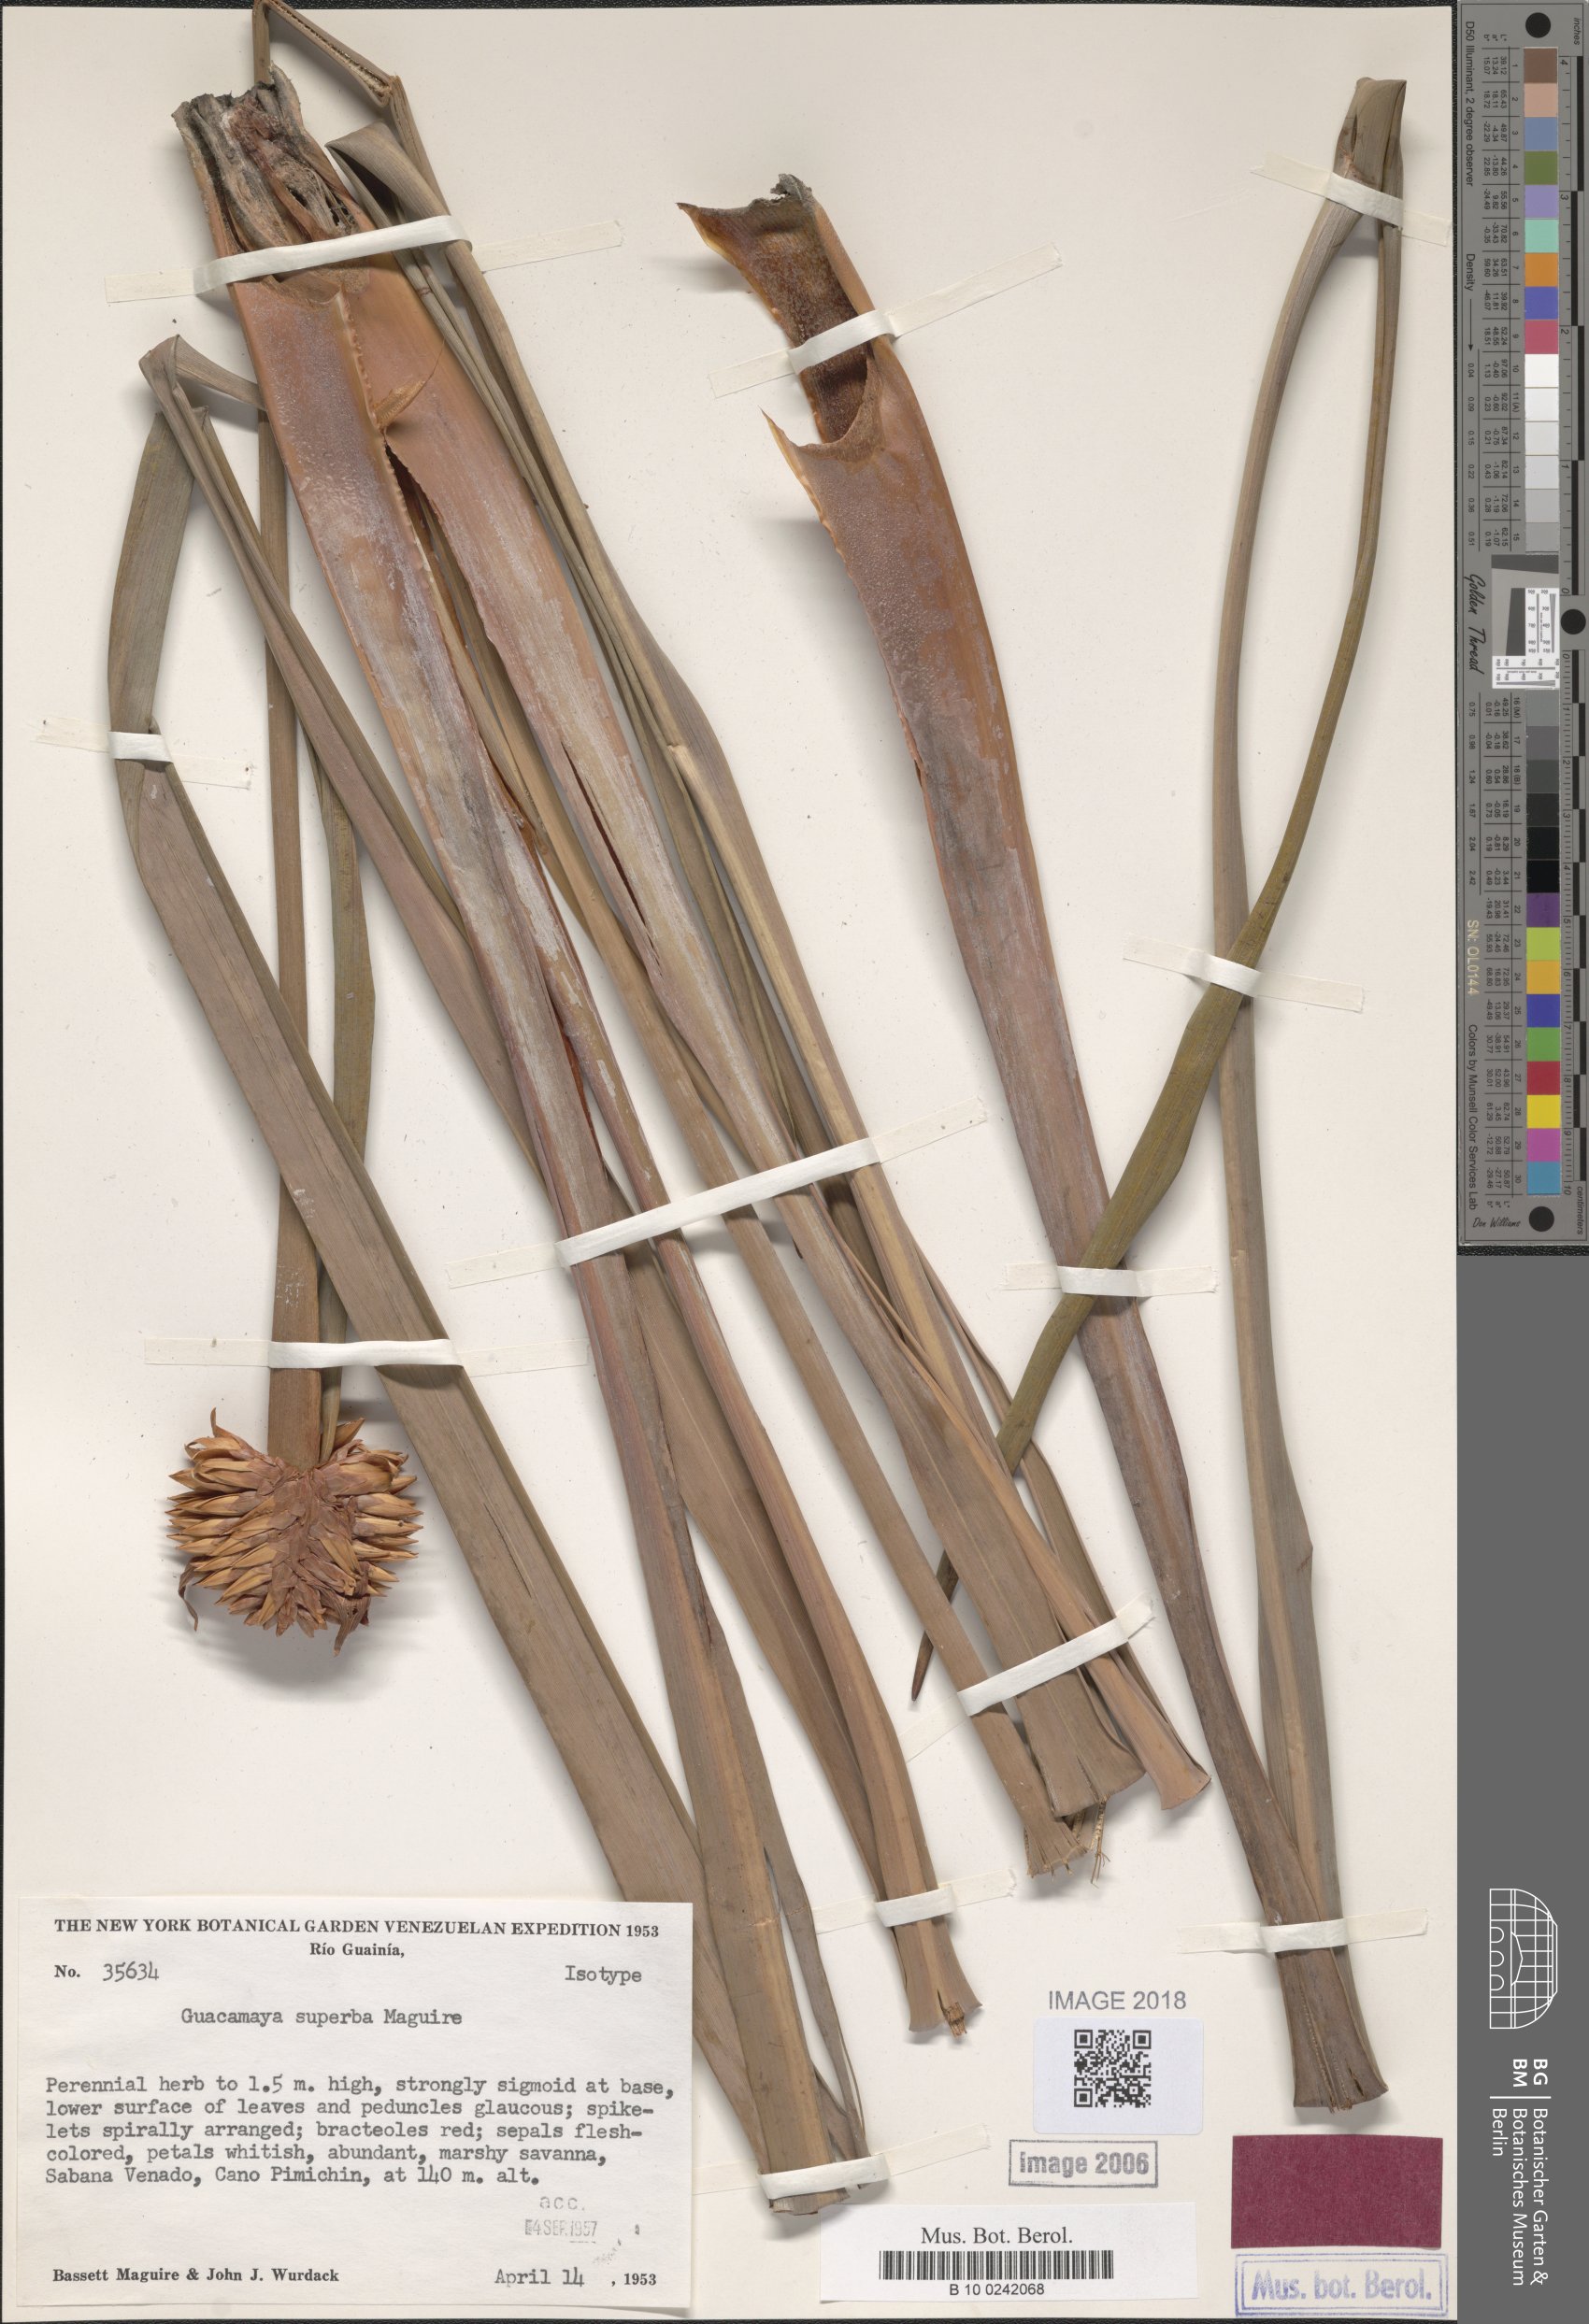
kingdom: Plantae
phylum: Tracheophyta
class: Liliopsida
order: Poales
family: Rapateaceae
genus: Guacamaya
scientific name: Guacamaya superba
